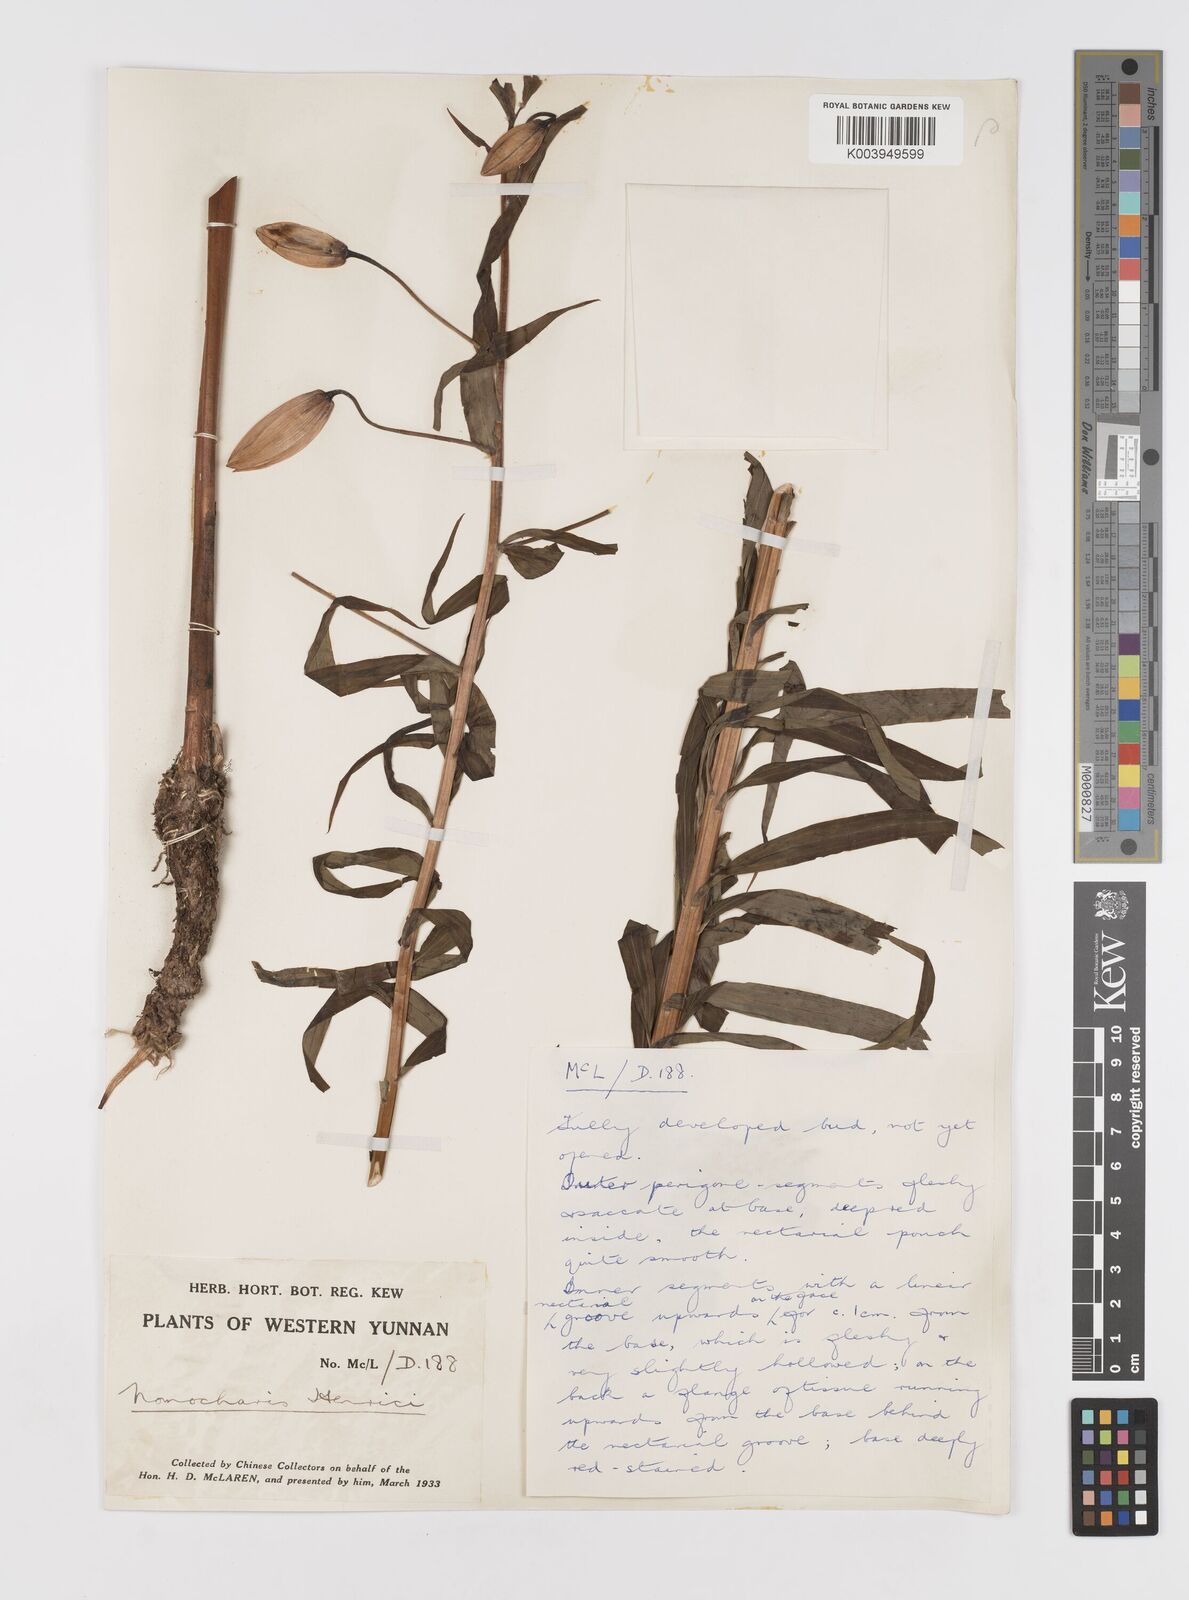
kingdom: Plantae
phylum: Tracheophyta
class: Liliopsida
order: Liliales
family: Liliaceae
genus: Lilium
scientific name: Lilium henrici
